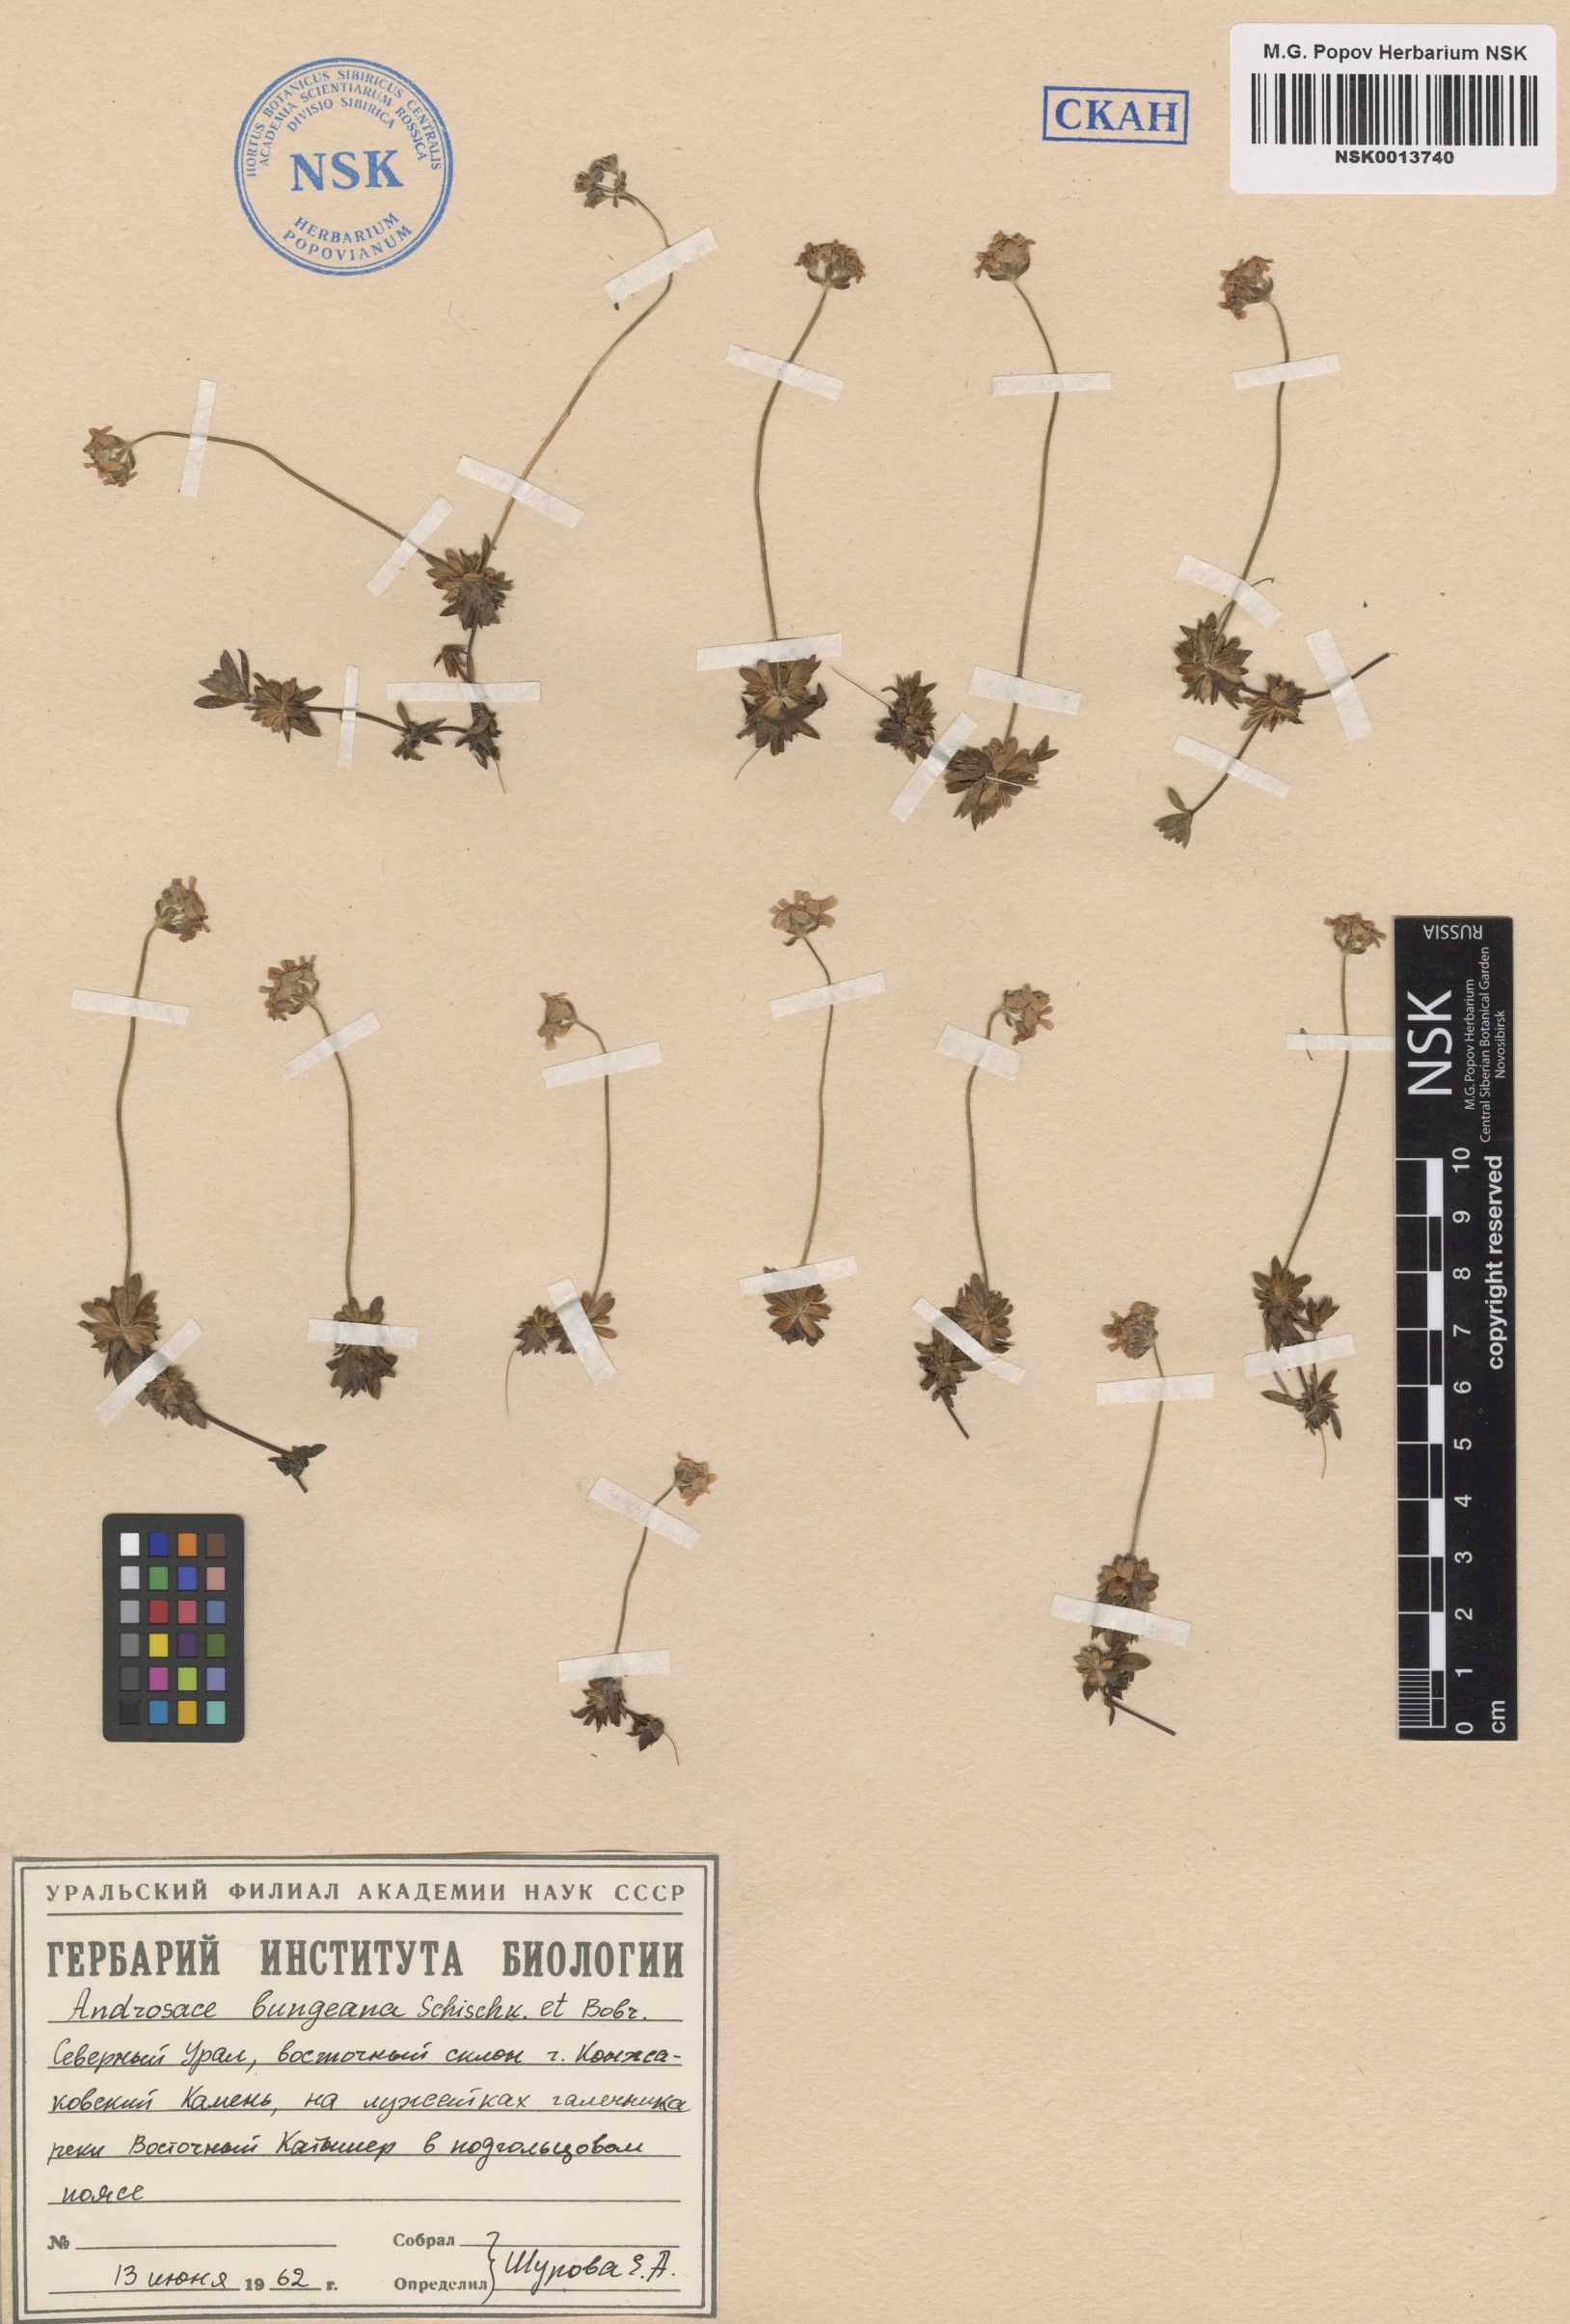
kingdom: Plantae
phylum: Tracheophyta
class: Magnoliopsida
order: Ericales
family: Primulaceae
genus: Androsace
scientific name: Androsace bungeana
